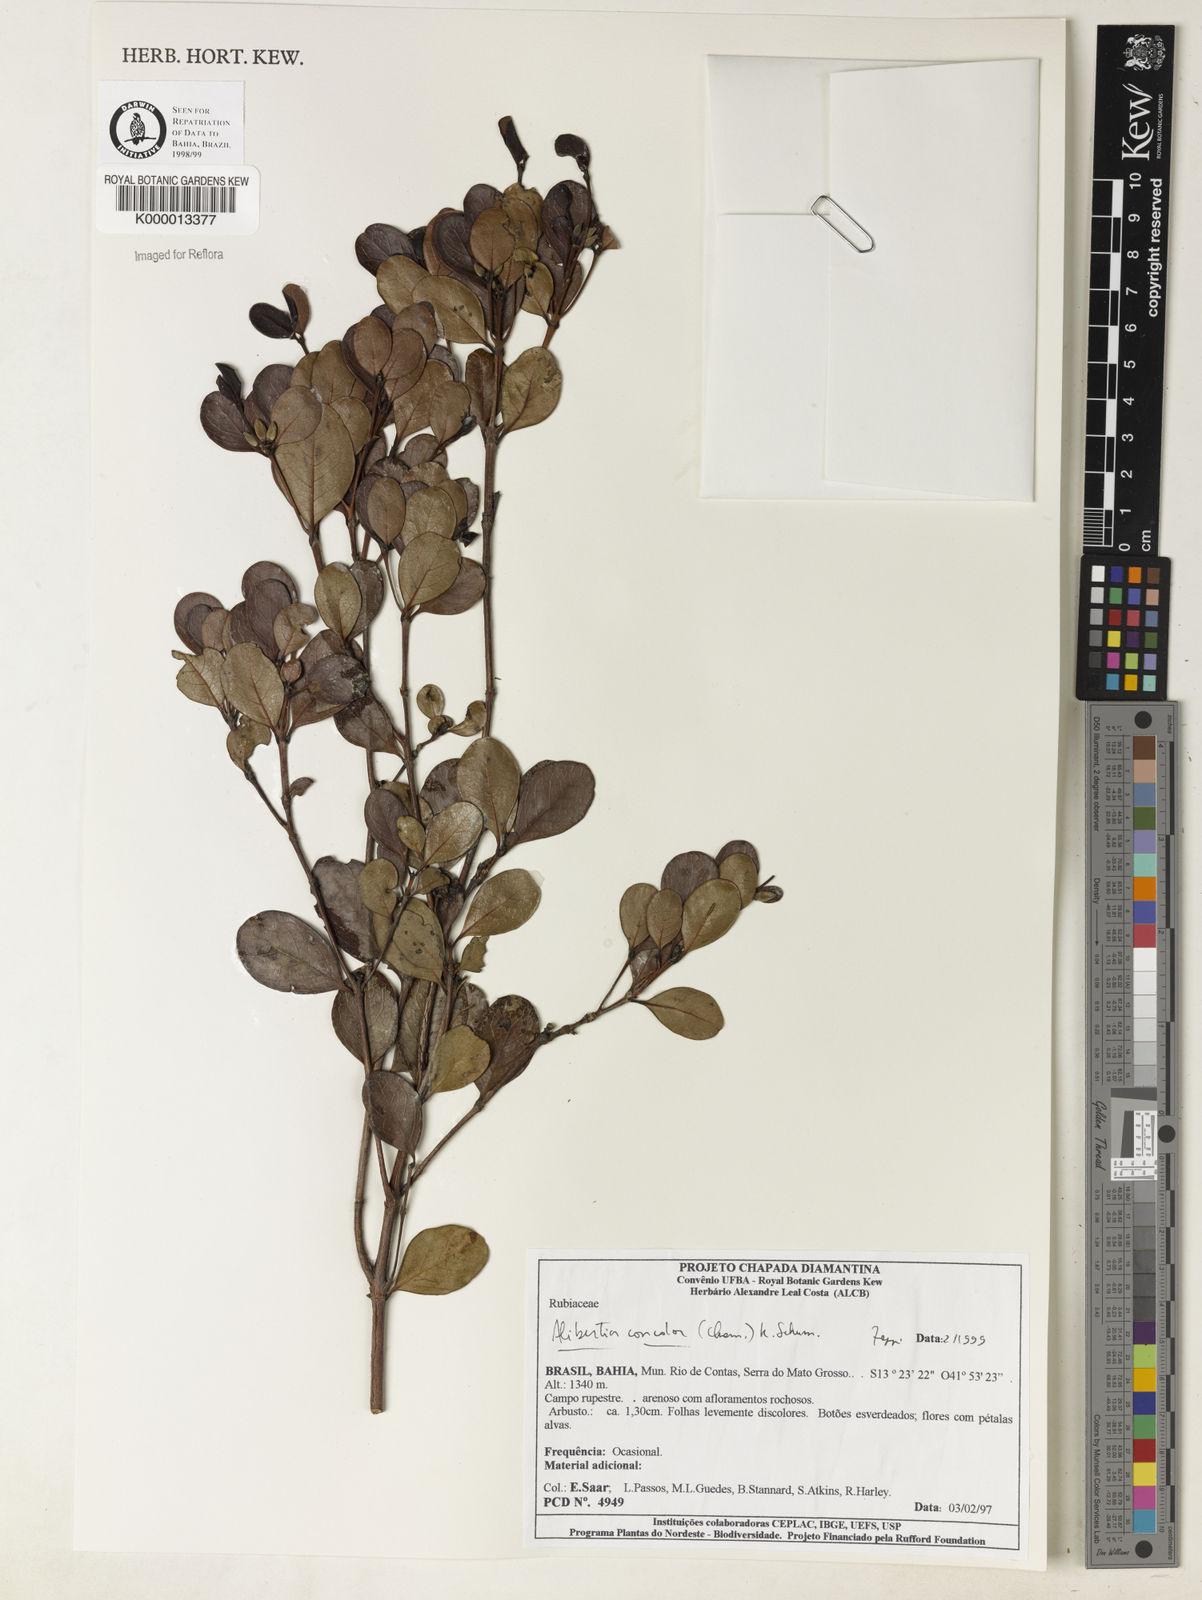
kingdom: Plantae
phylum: Tracheophyta
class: Magnoliopsida
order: Gentianales
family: Rubiaceae
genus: Cordiera
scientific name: Cordiera concolor
